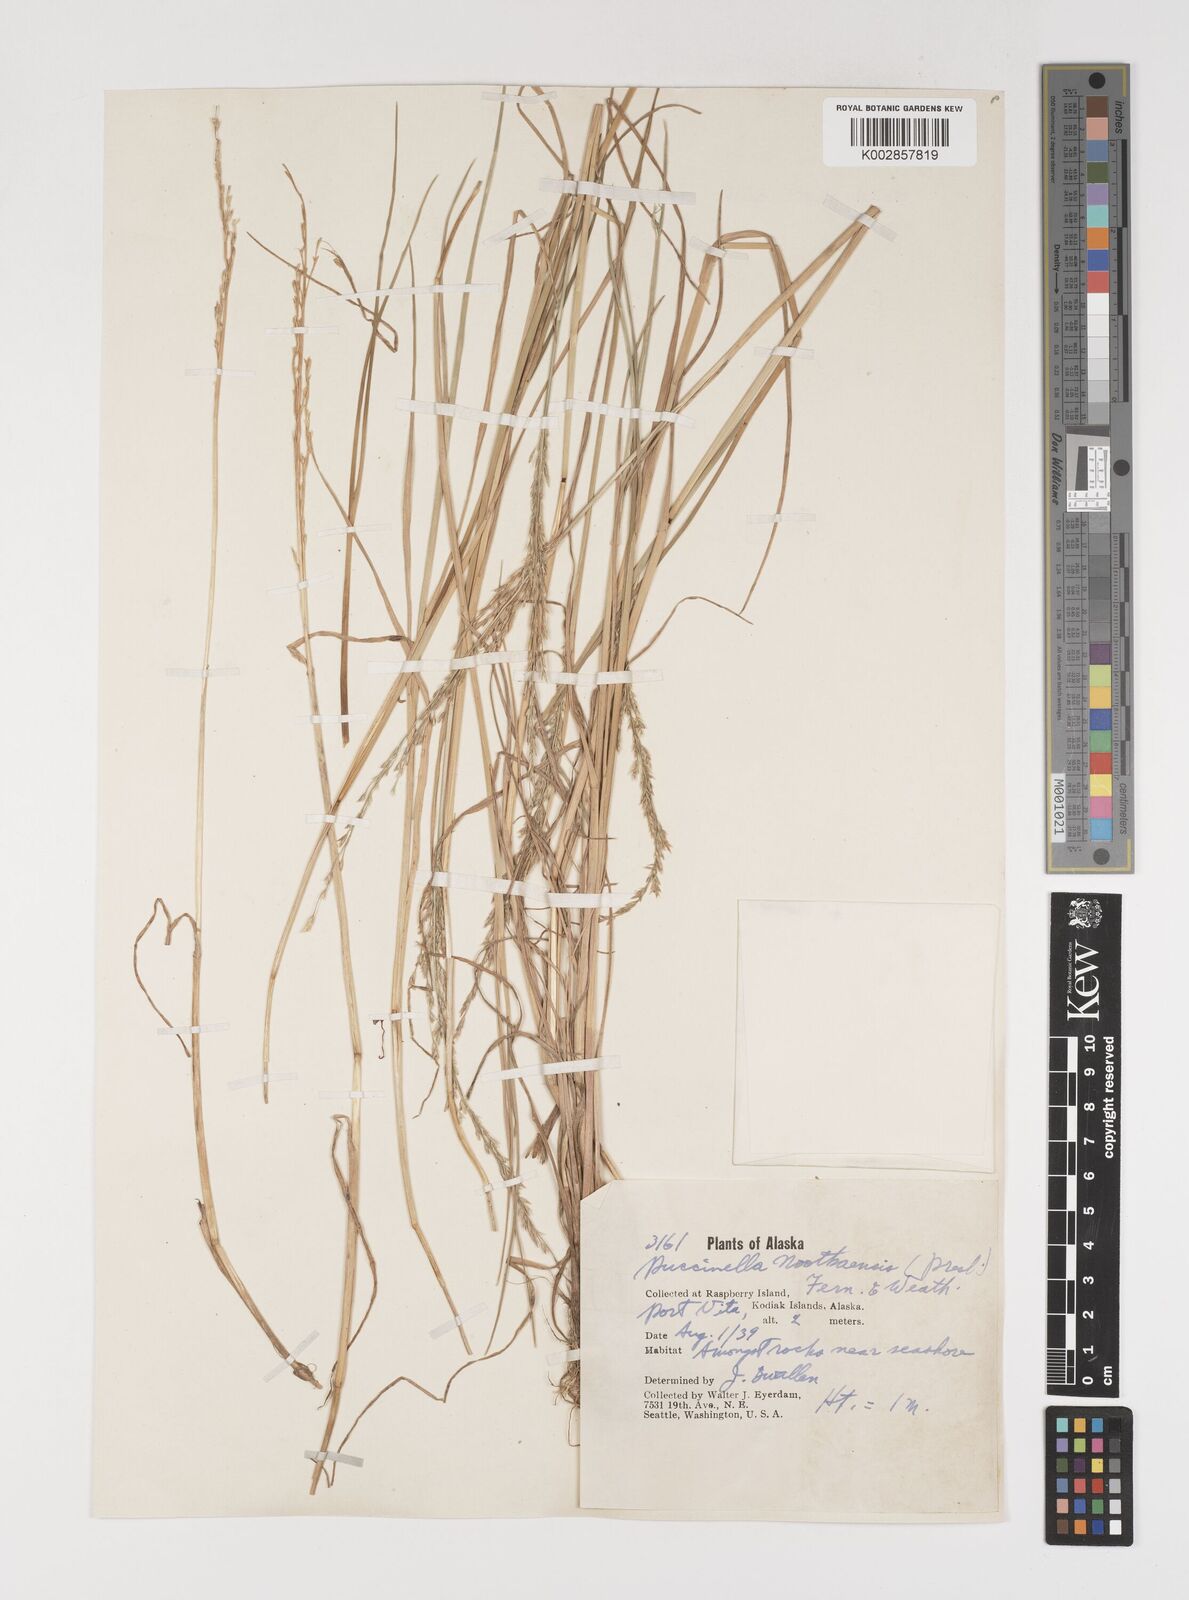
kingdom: Plantae
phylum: Tracheophyta
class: Liliopsida
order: Poales
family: Poaceae
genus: Puccinellia
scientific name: Puccinellia nutkaensis
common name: Nootka alkaligrass
